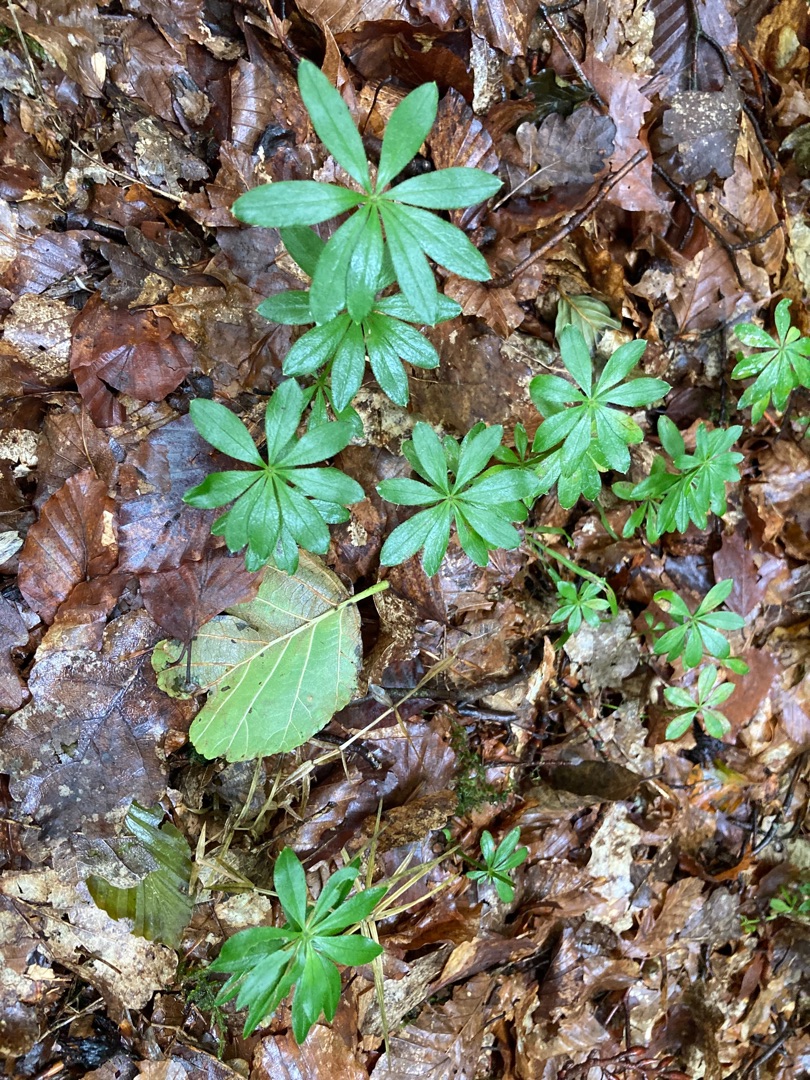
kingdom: Plantae
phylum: Tracheophyta
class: Magnoliopsida
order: Gentianales
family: Rubiaceae
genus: Galium
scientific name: Galium odoratum
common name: Skovmærke
